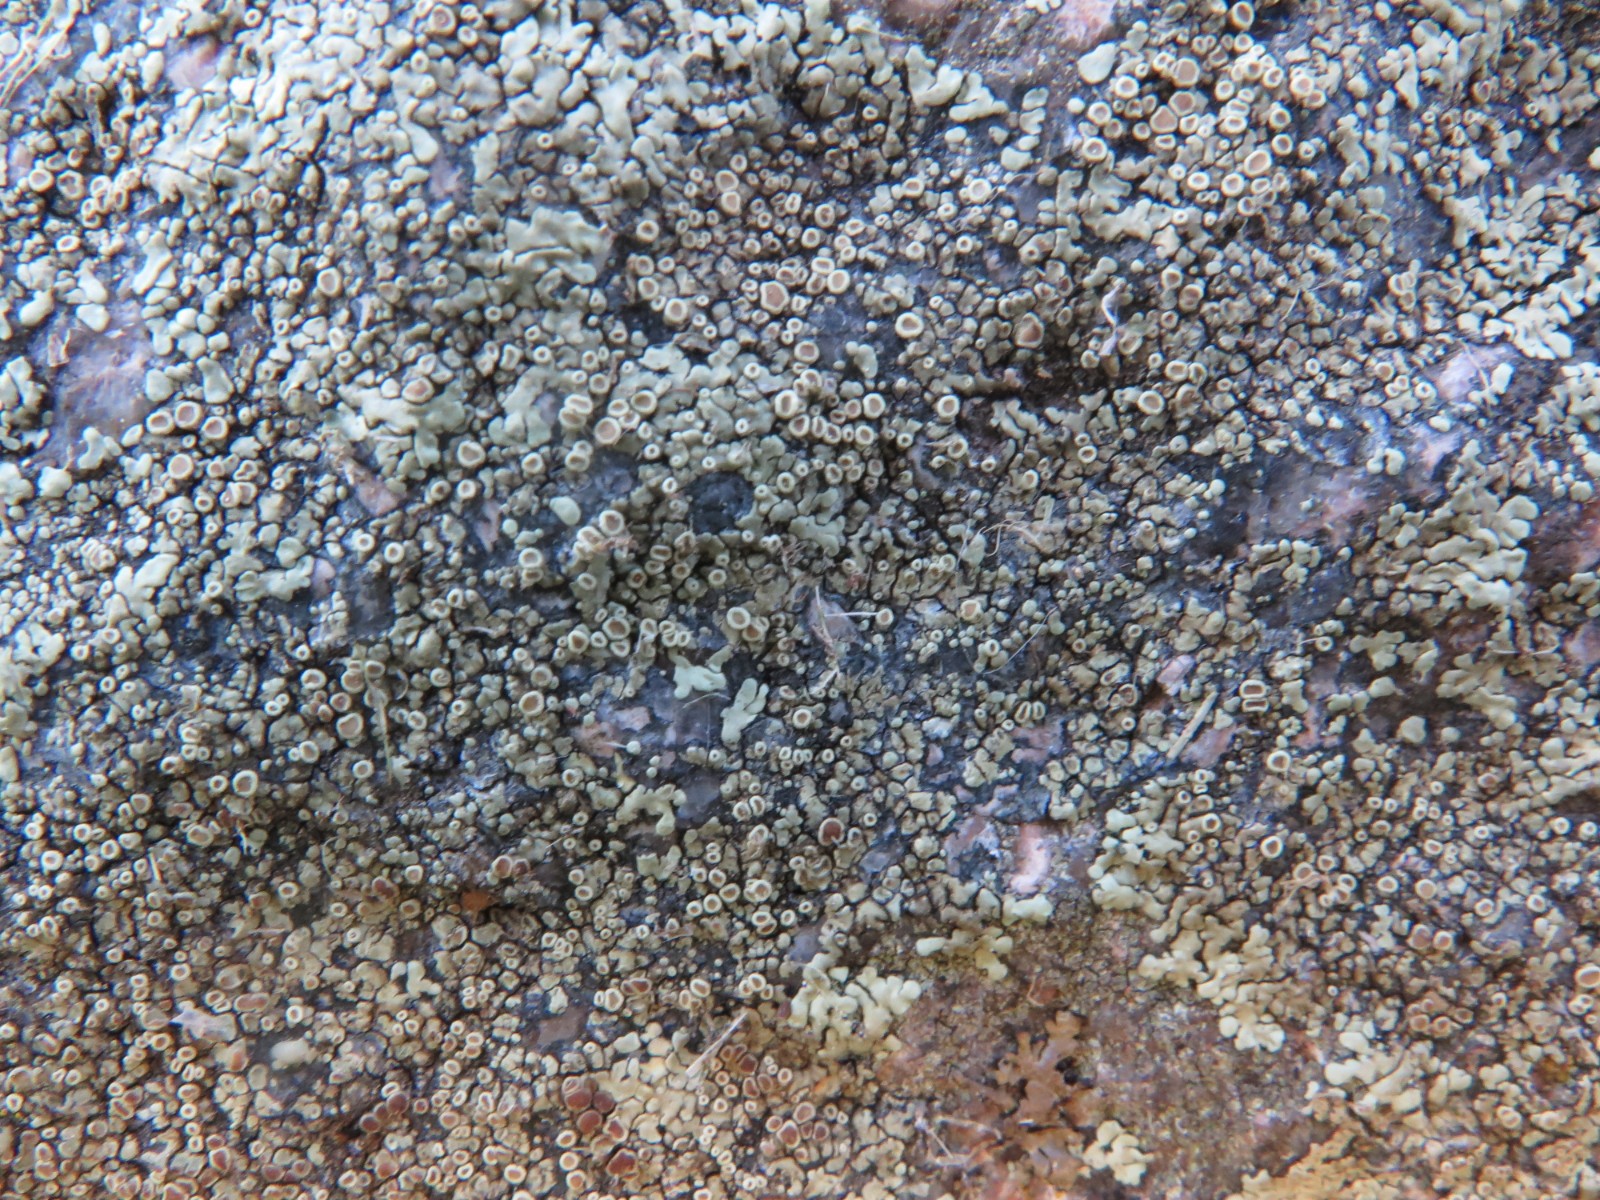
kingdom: Fungi
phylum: Ascomycota
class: Lecanoromycetes
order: Lecanorales
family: Lecanoraceae
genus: Protoparmeliopsis
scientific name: Protoparmeliopsis muralis
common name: randfliget kantskivelav
